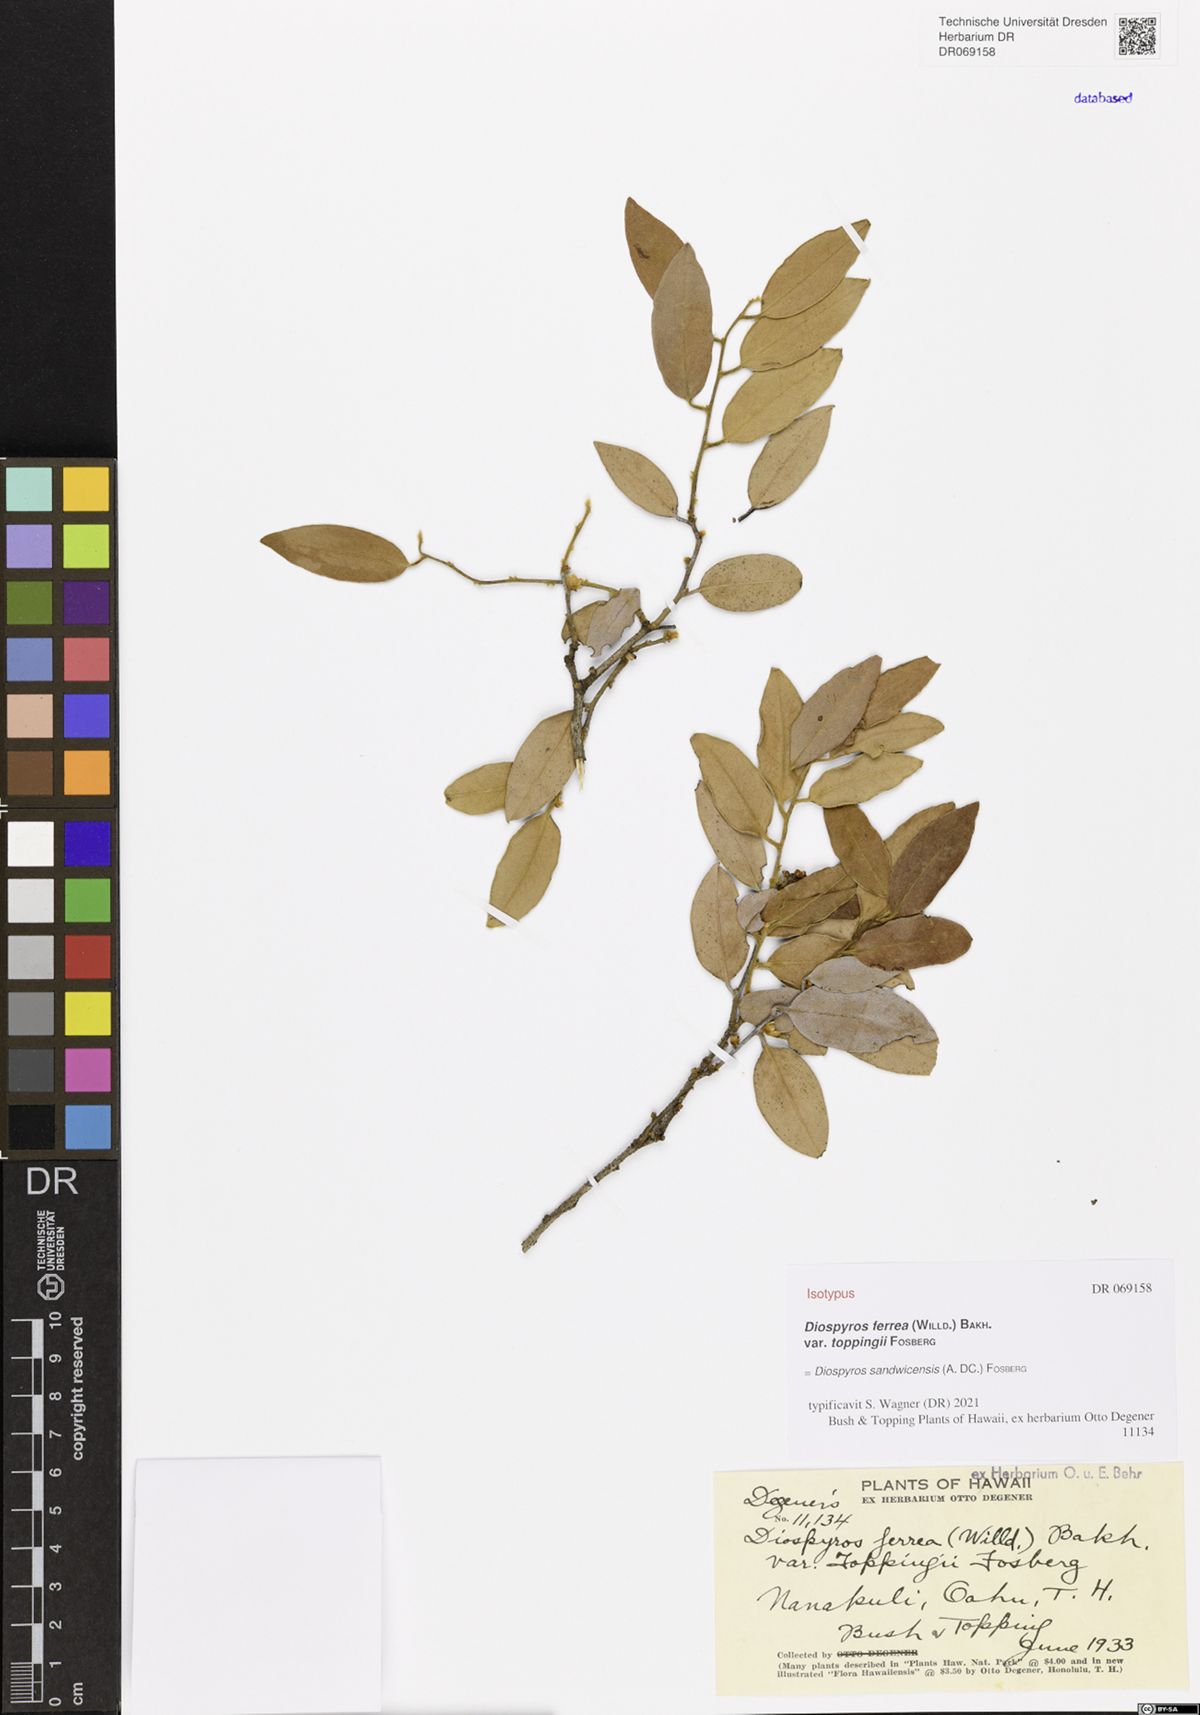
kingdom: Plantae
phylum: Tracheophyta
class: Magnoliopsida
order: Ericales
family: Ebenaceae
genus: Diospyros
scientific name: Diospyros sandwicensis
